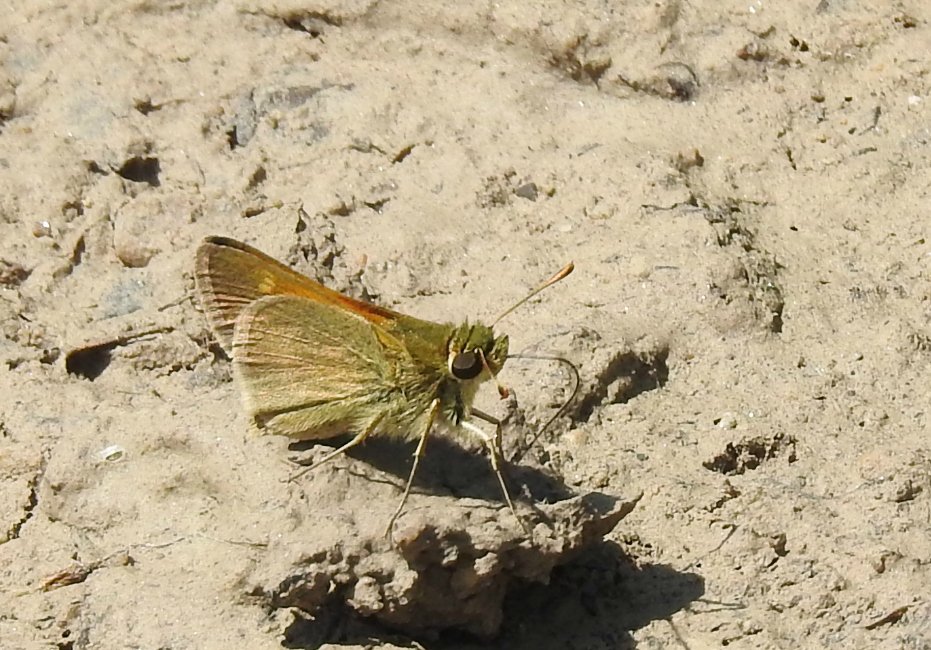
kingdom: Animalia
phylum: Arthropoda
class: Insecta
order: Lepidoptera
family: Hesperiidae
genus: Polites
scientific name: Polites themistocles
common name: Tawny-edged Skipper
